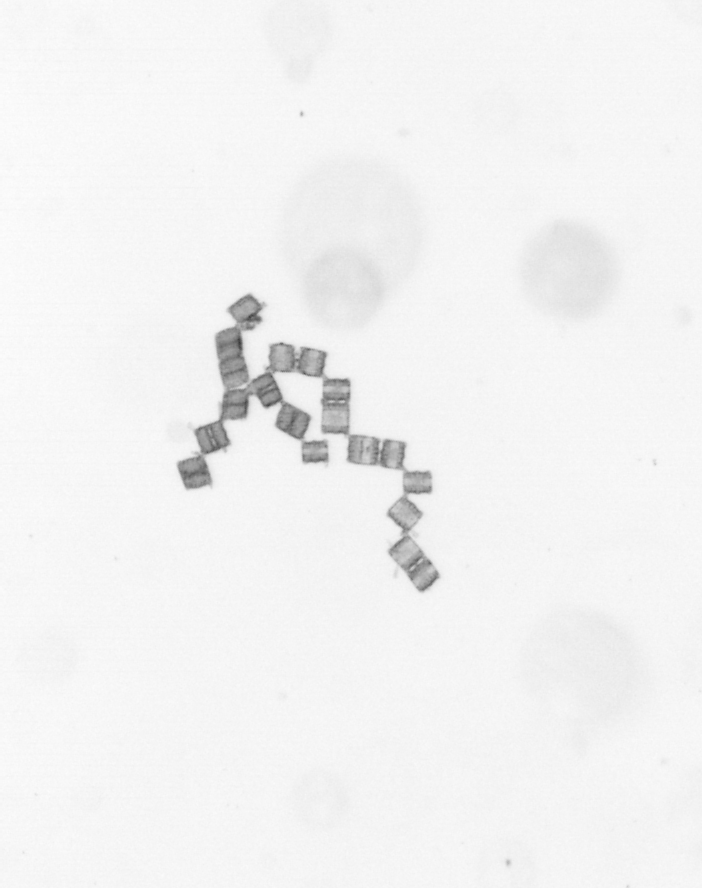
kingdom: Chromista
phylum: Ochrophyta
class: Bacillariophyceae
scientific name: Bacillariophyceae
